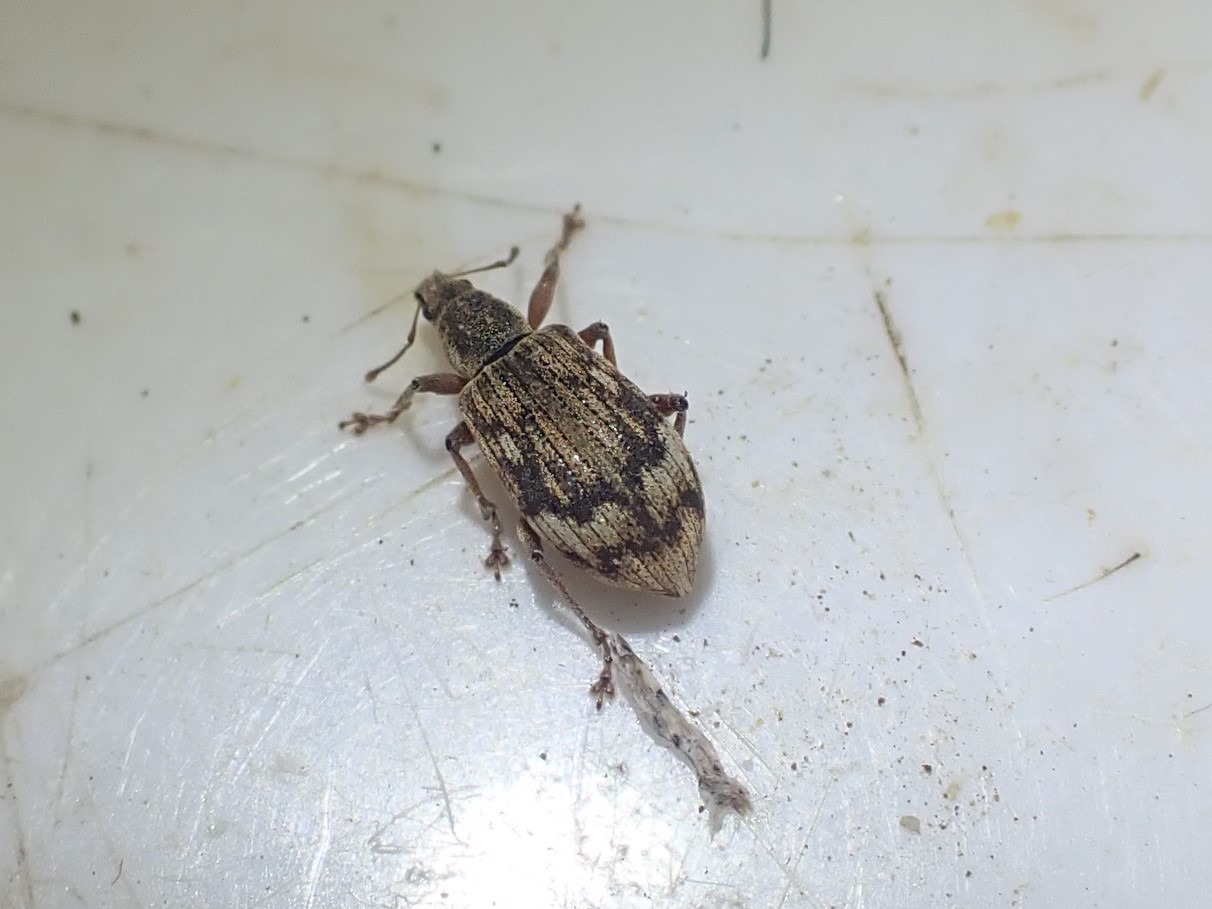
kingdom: Animalia
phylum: Arthropoda
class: Insecta
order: Coleoptera
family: Curculionidae
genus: Polydrusus
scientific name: Polydrusus tereticollis
